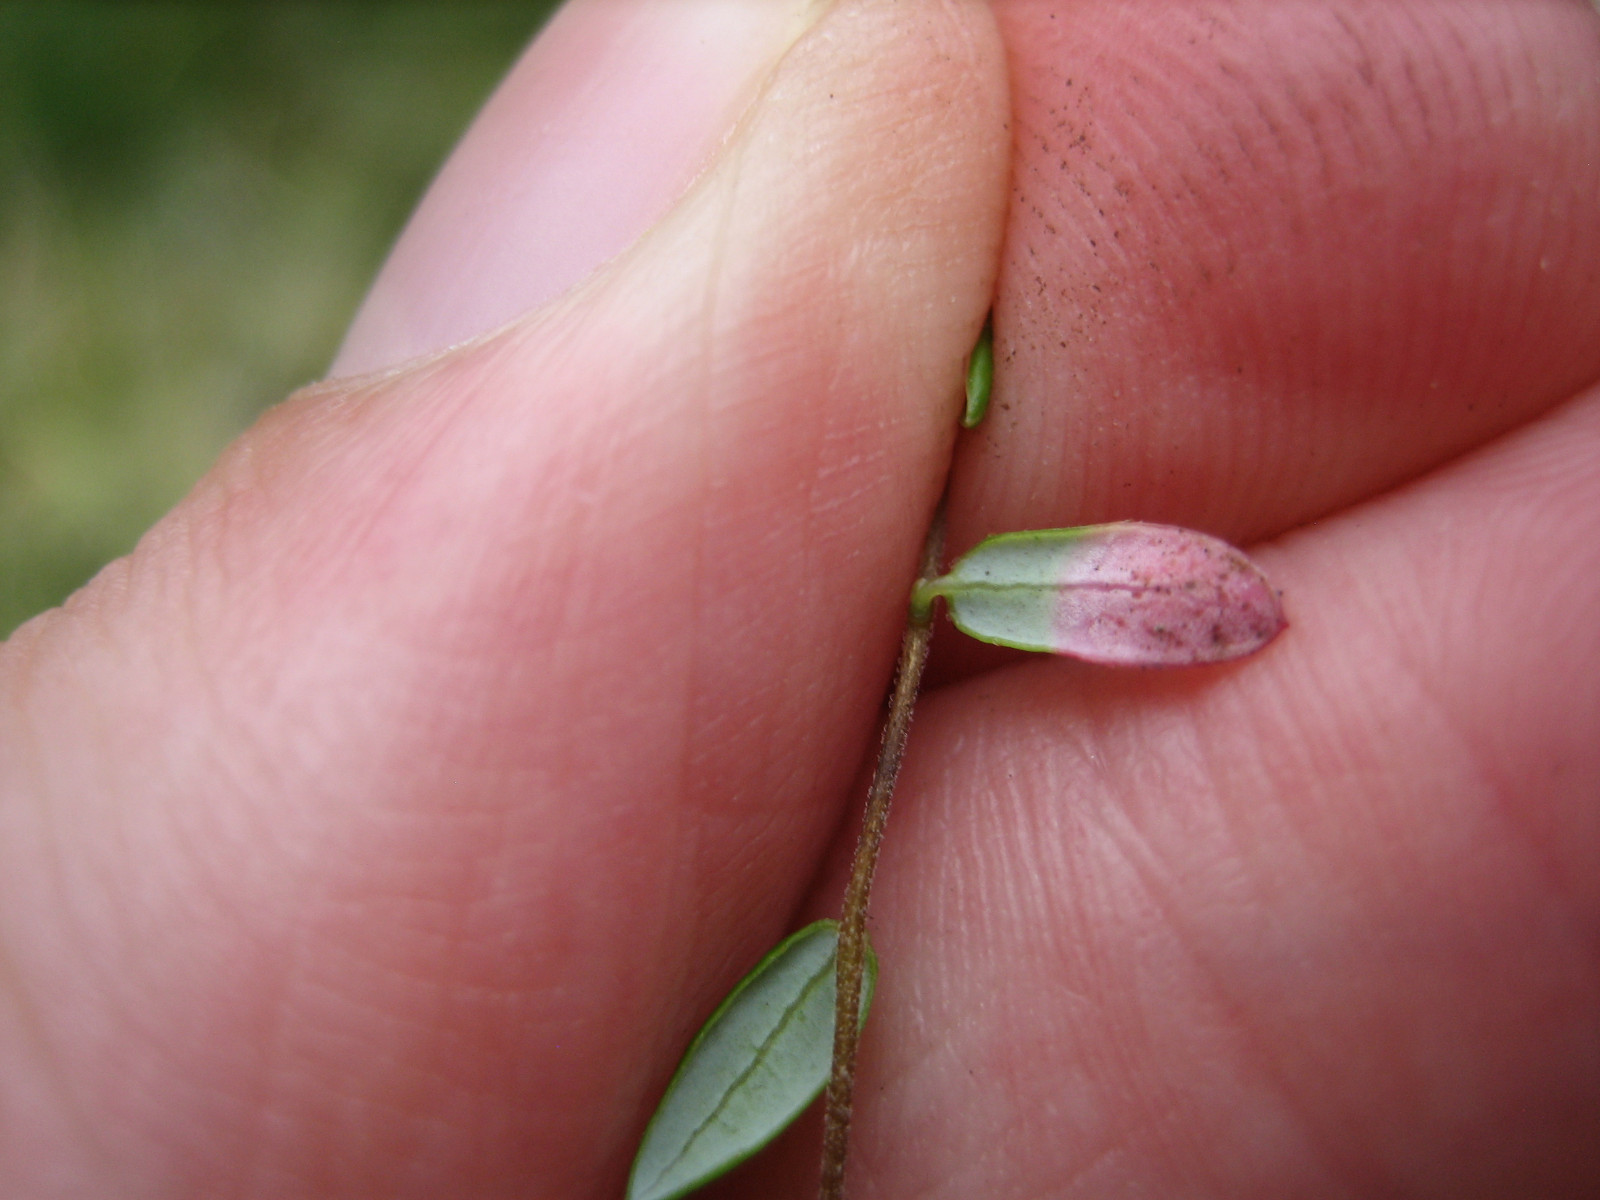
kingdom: Fungi
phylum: Basidiomycota
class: Exobasidiomycetes
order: Exobasidiales
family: Exobasidiaceae
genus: Exobasidium
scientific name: Exobasidium rostrupii
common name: tranebærblad-bøllesvamp
